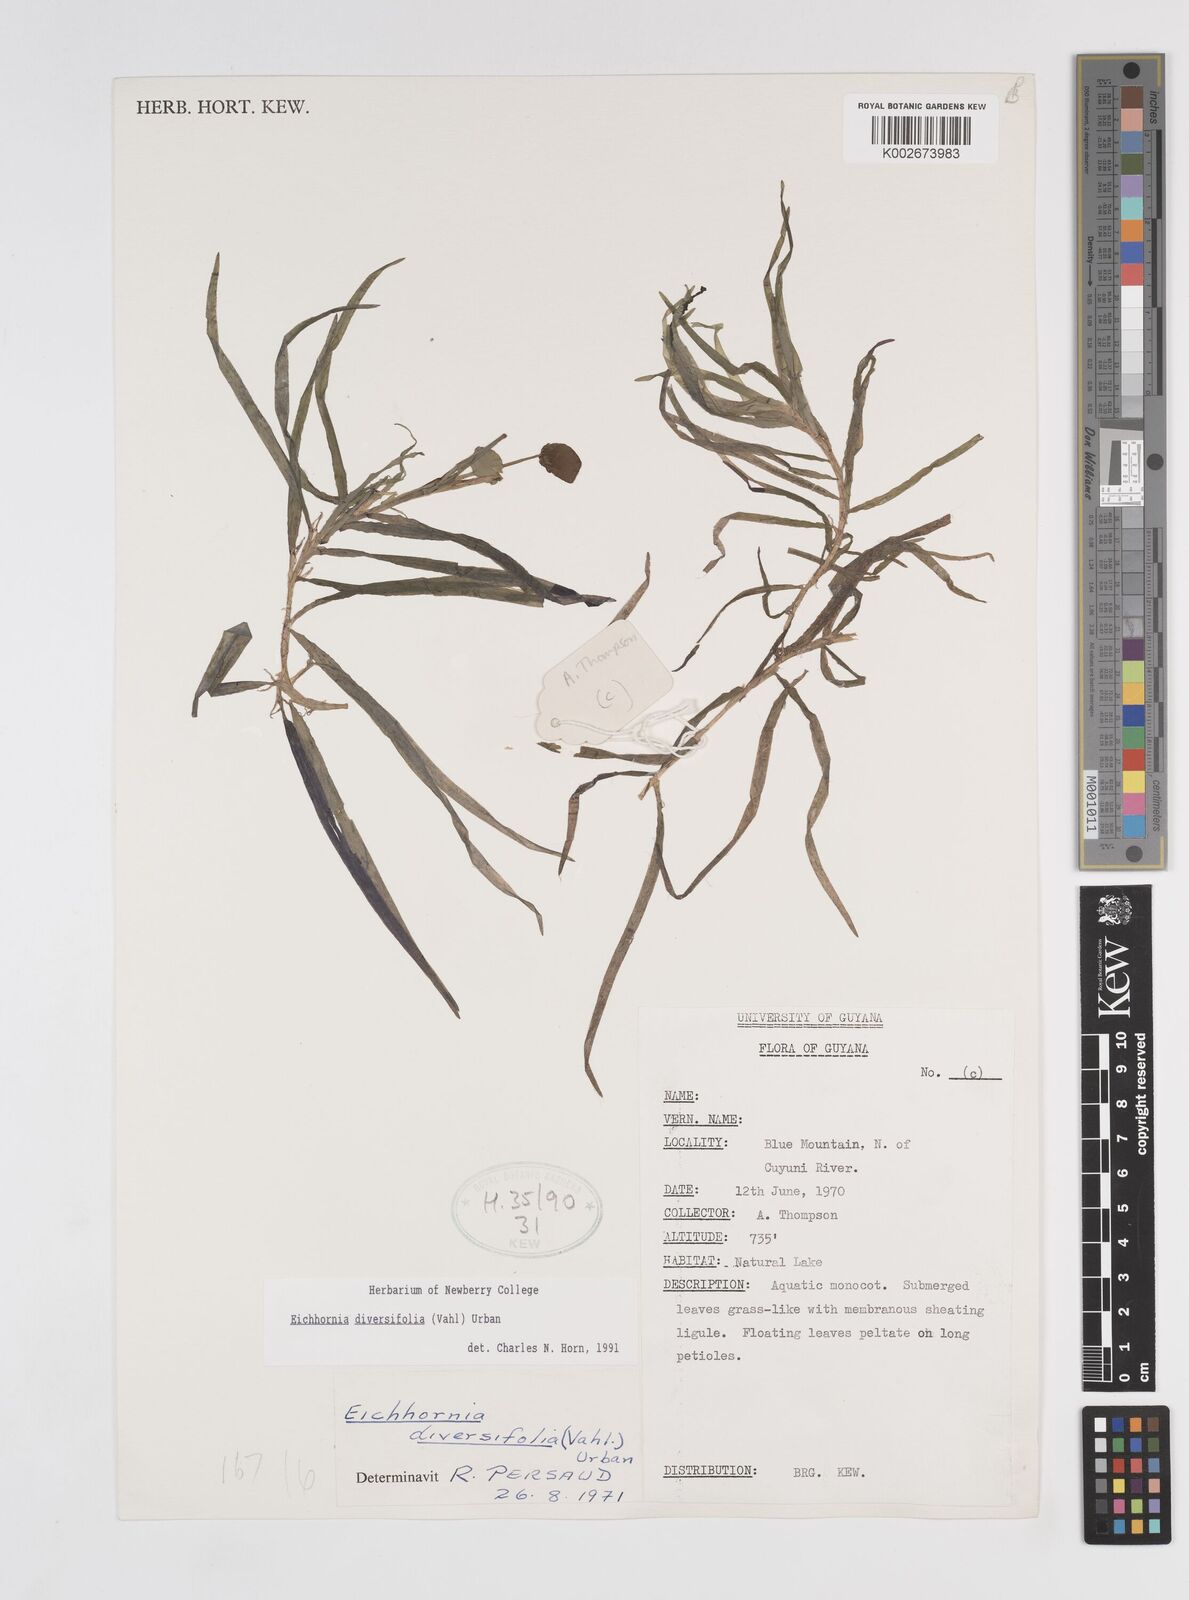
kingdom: Plantae
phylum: Tracheophyta
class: Liliopsida
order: Commelinales
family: Pontederiaceae
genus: Pontederia
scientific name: Pontederia diversifolia
